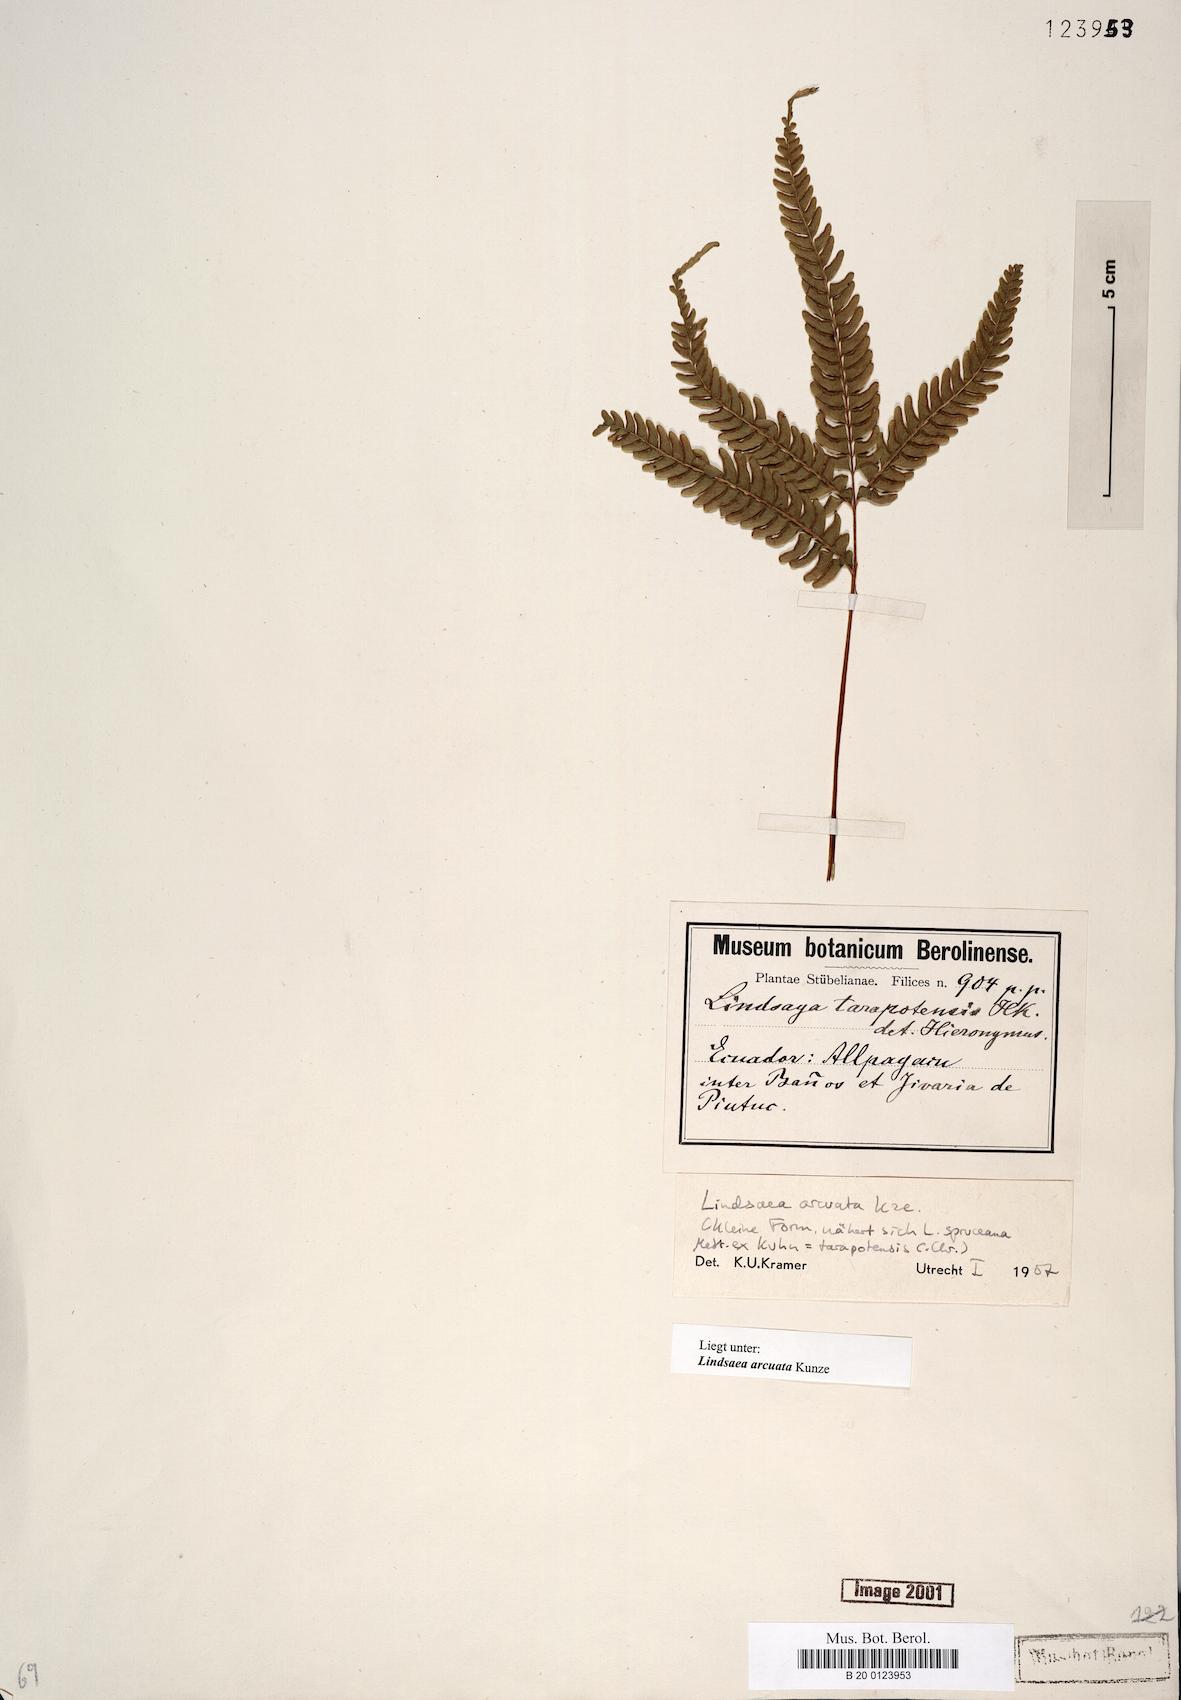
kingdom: Plantae
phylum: Tracheophyta
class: Polypodiopsida
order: Polypodiales
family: Lindsaeaceae
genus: Lindsaea
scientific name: Lindsaea arcuata
